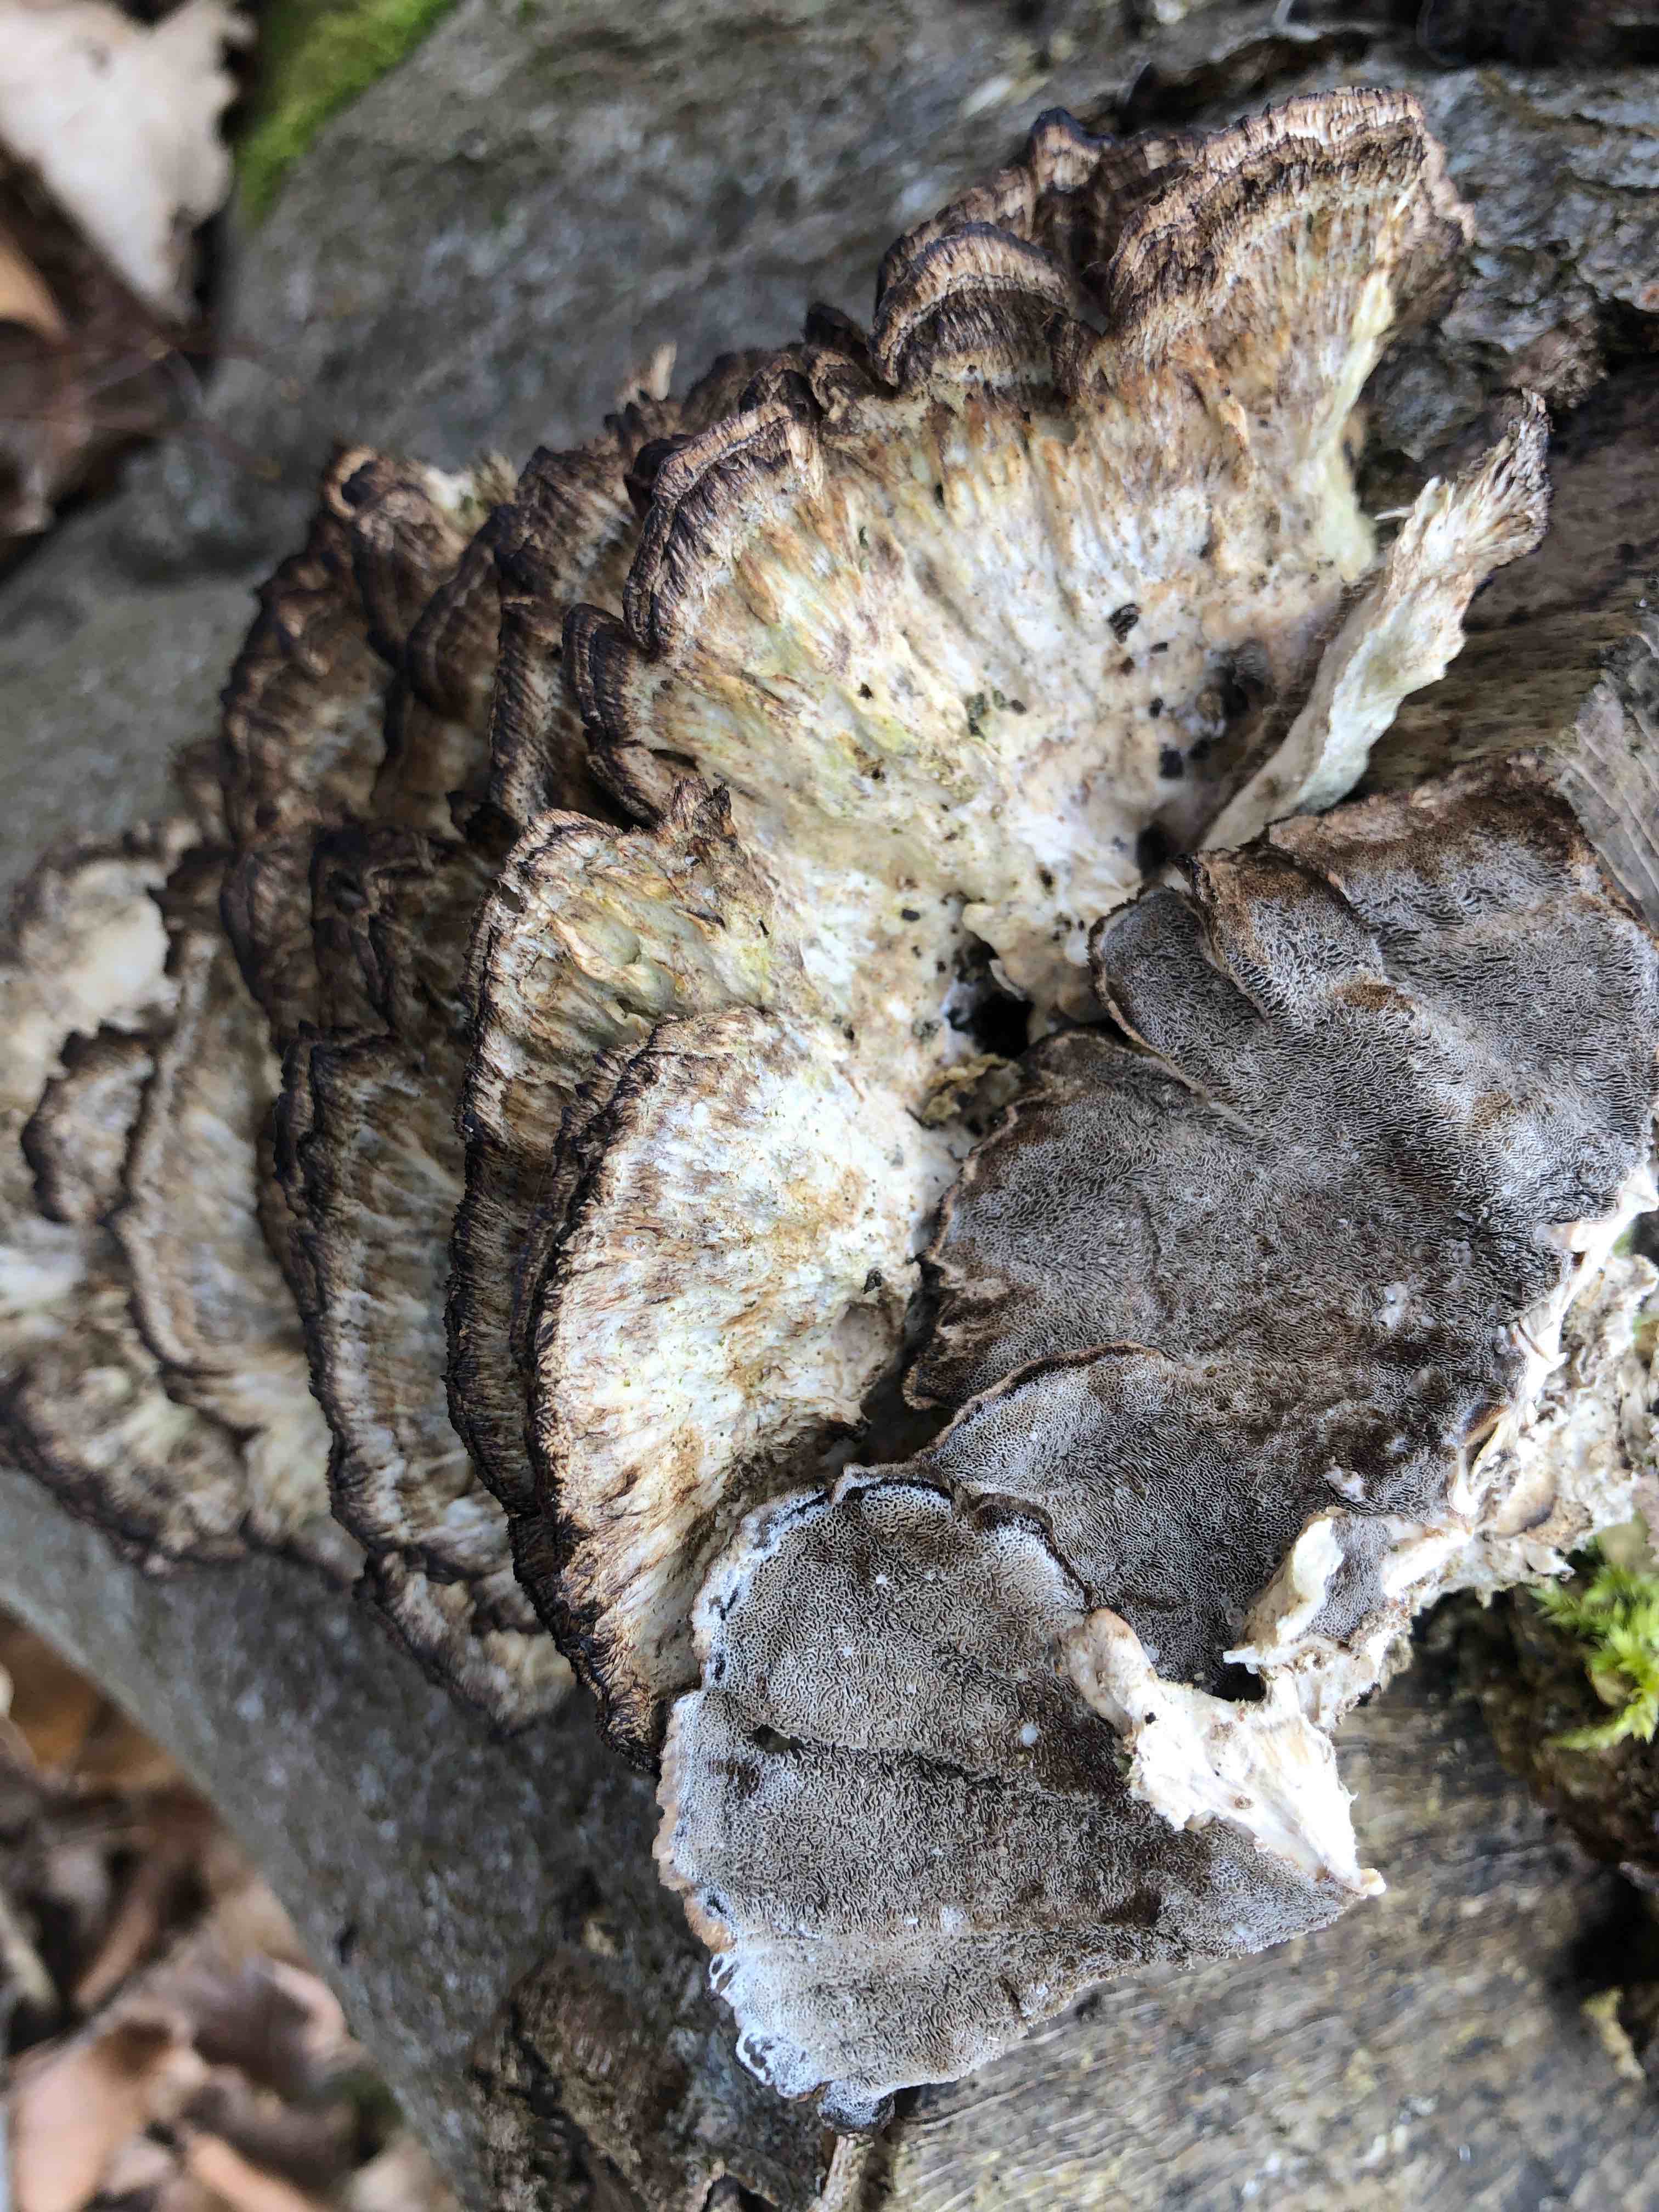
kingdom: Fungi
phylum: Basidiomycota
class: Agaricomycetes
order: Polyporales
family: Phanerochaetaceae
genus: Bjerkandera
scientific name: Bjerkandera adusta
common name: sveden sodporesvamp
